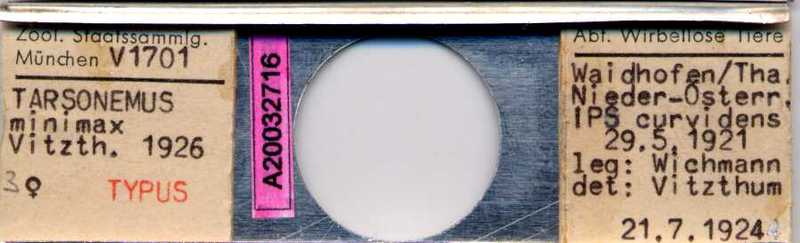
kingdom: Animalia
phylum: Arthropoda
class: Arachnida
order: Trombidiformes
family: Tarsonemidae
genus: Tarsonemus
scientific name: Tarsonemus minimax
